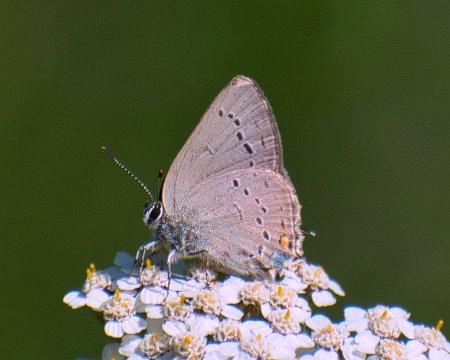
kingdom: Animalia
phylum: Arthropoda
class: Insecta
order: Lepidoptera
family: Lycaenidae
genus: Strymon
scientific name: Strymon sylvinus
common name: Sylvan Hairstreak
